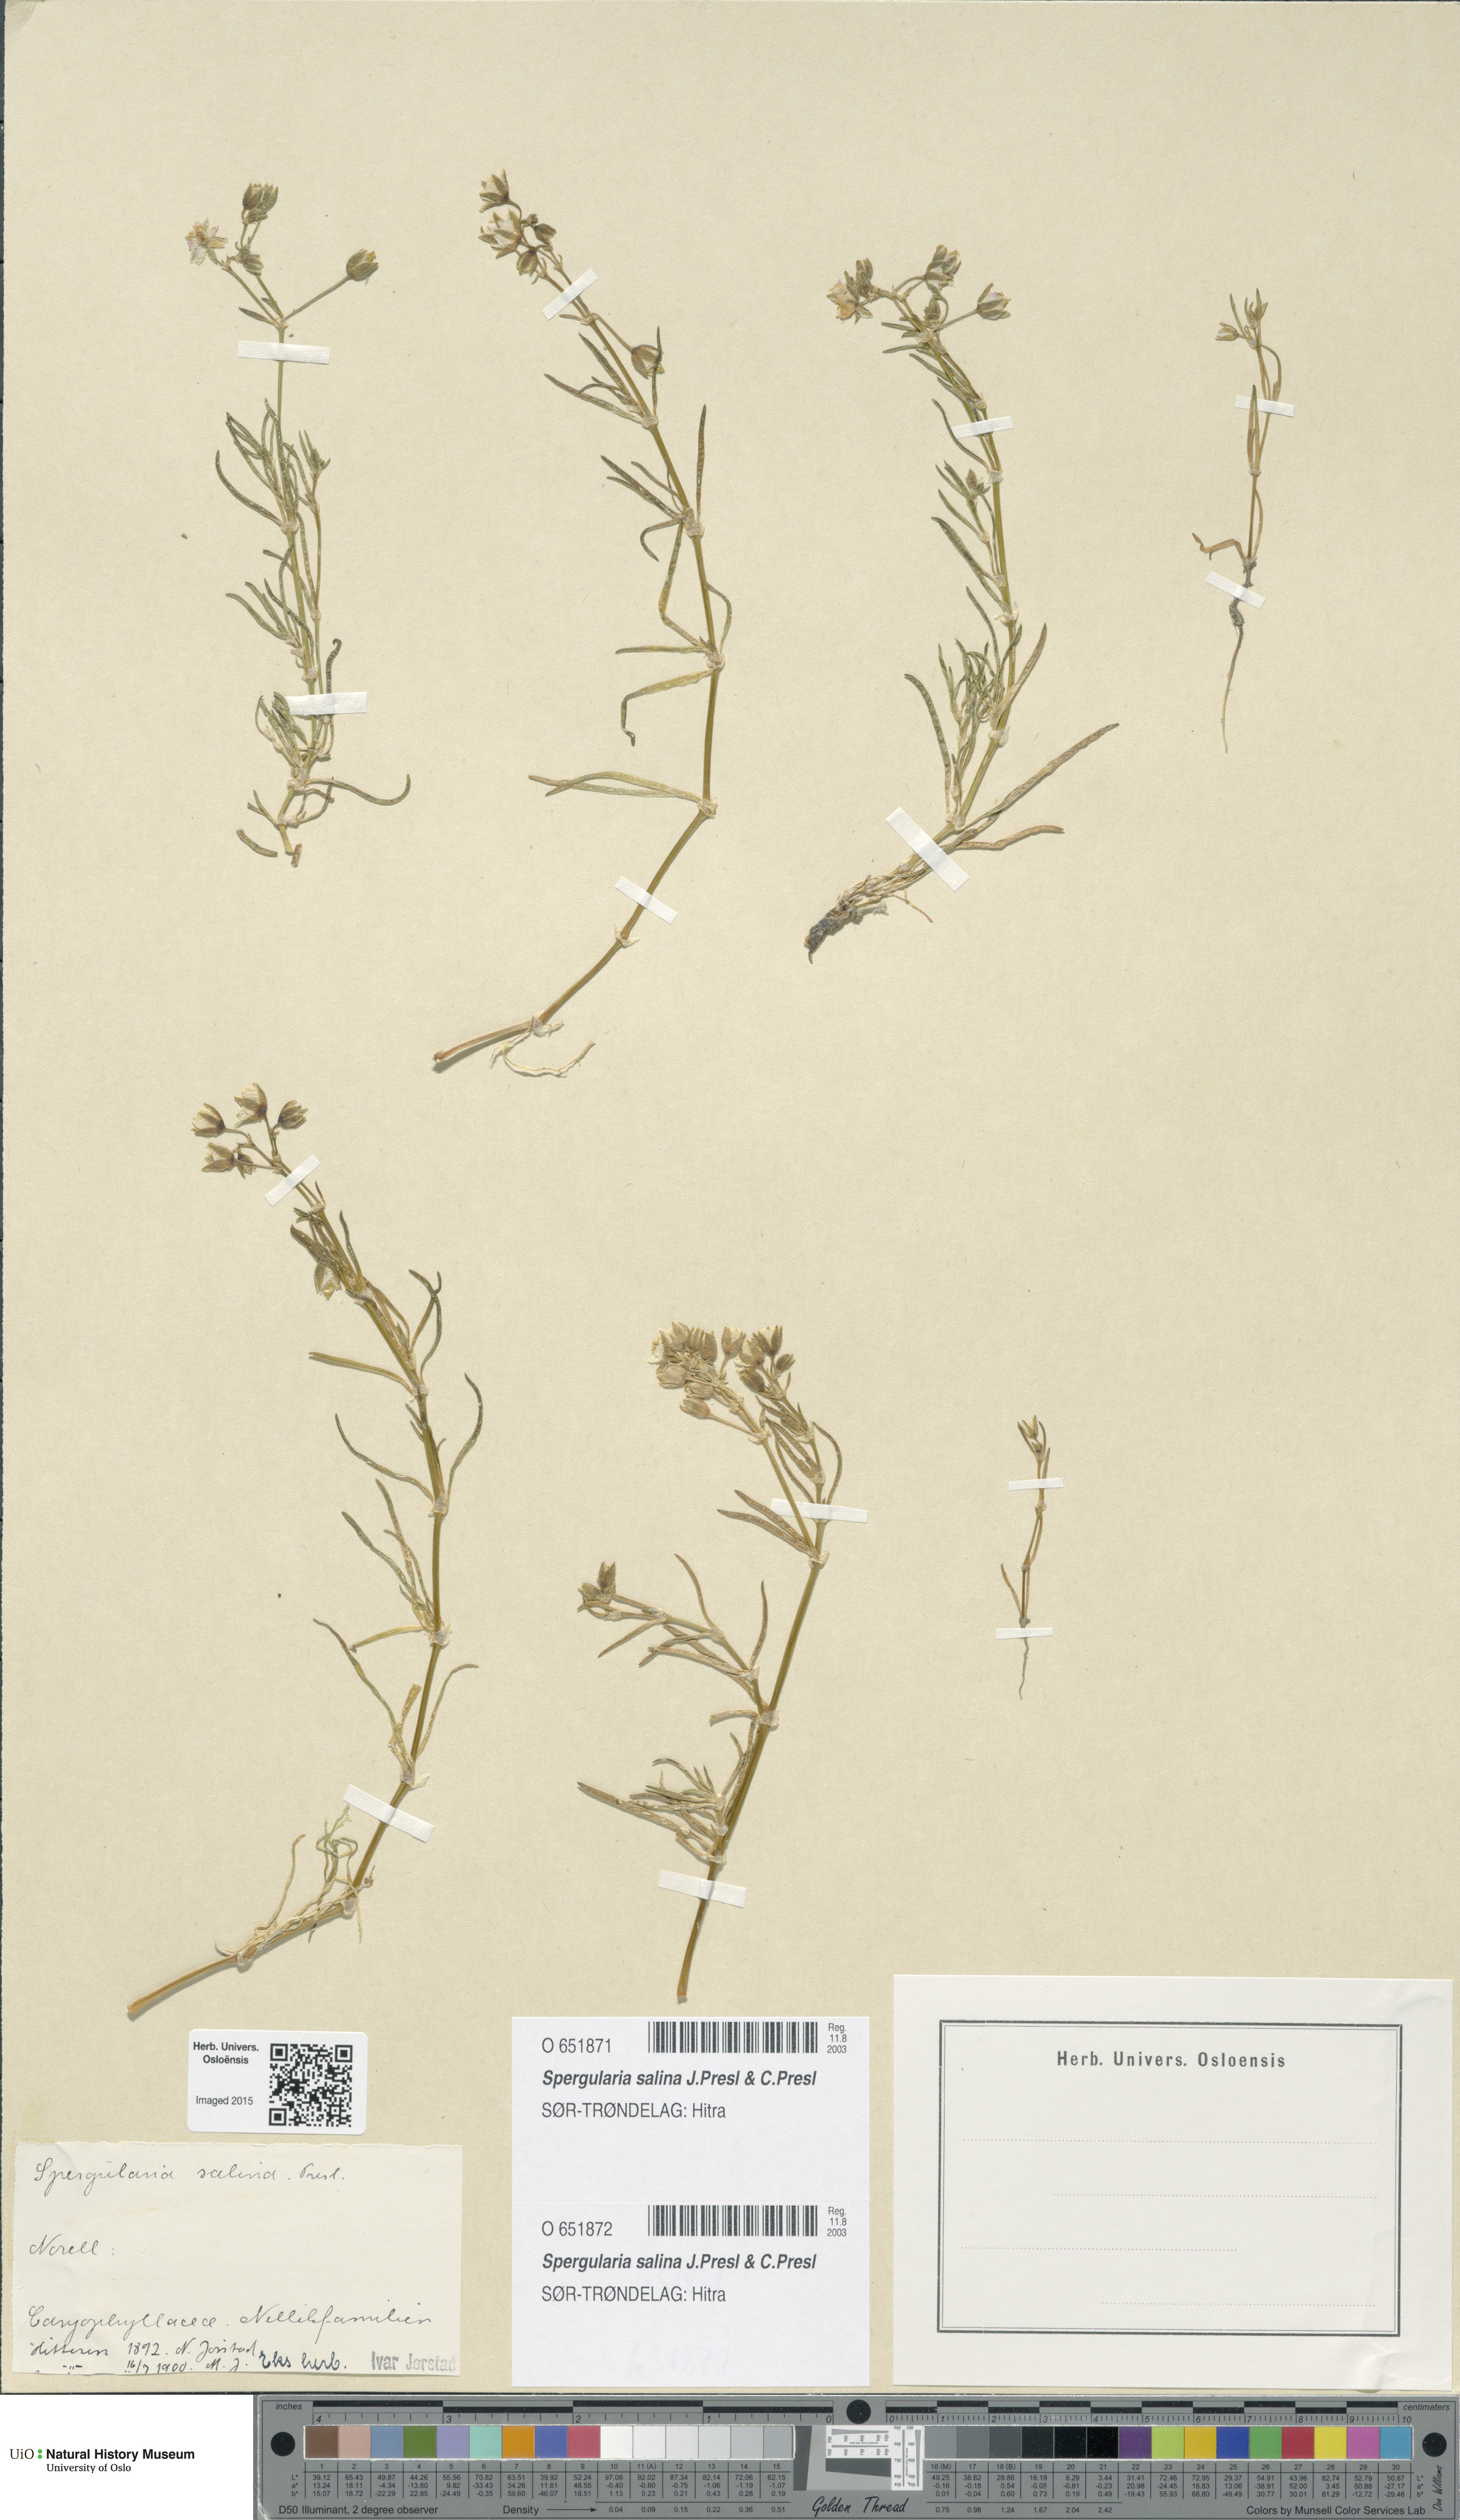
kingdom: Plantae
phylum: Tracheophyta
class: Magnoliopsida
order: Caryophyllales
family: Caryophyllaceae
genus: Spergularia
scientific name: Spergularia marina
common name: Lesser sea-spurrey
